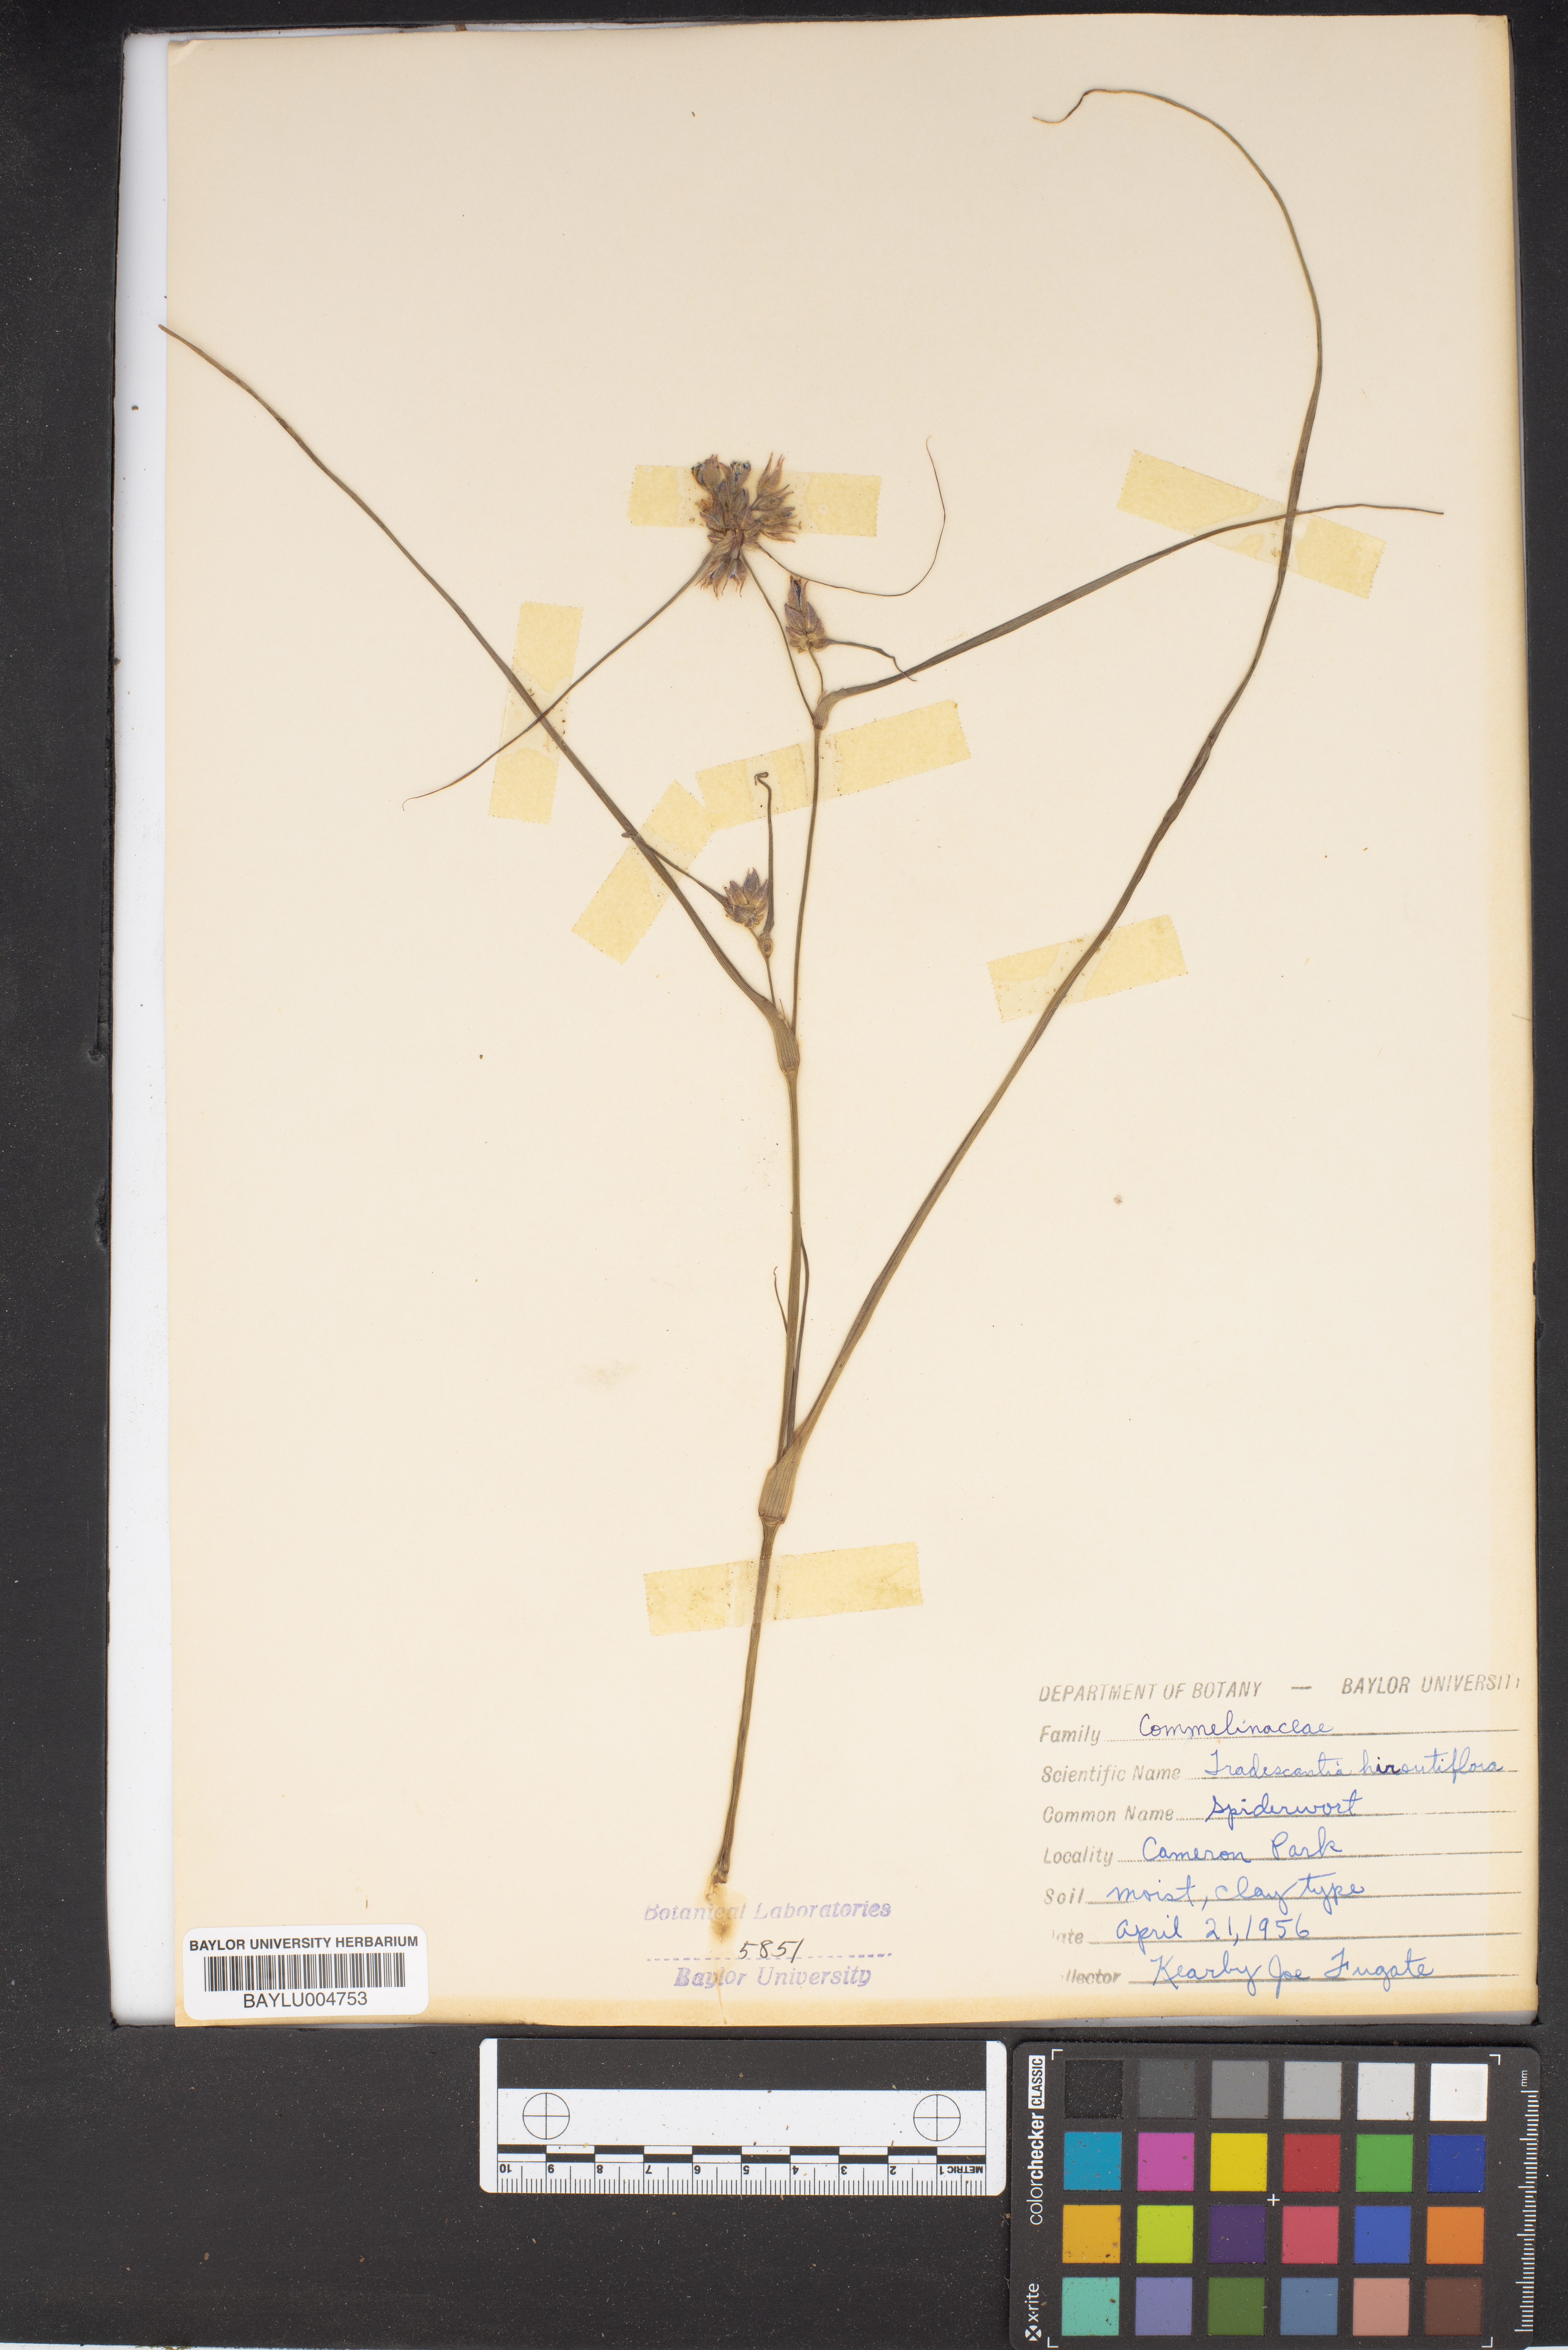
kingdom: Plantae
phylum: Tracheophyta
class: Liliopsida
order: Commelinales
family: Commelinaceae
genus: Tradescantia
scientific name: Tradescantia hirsutiflora
